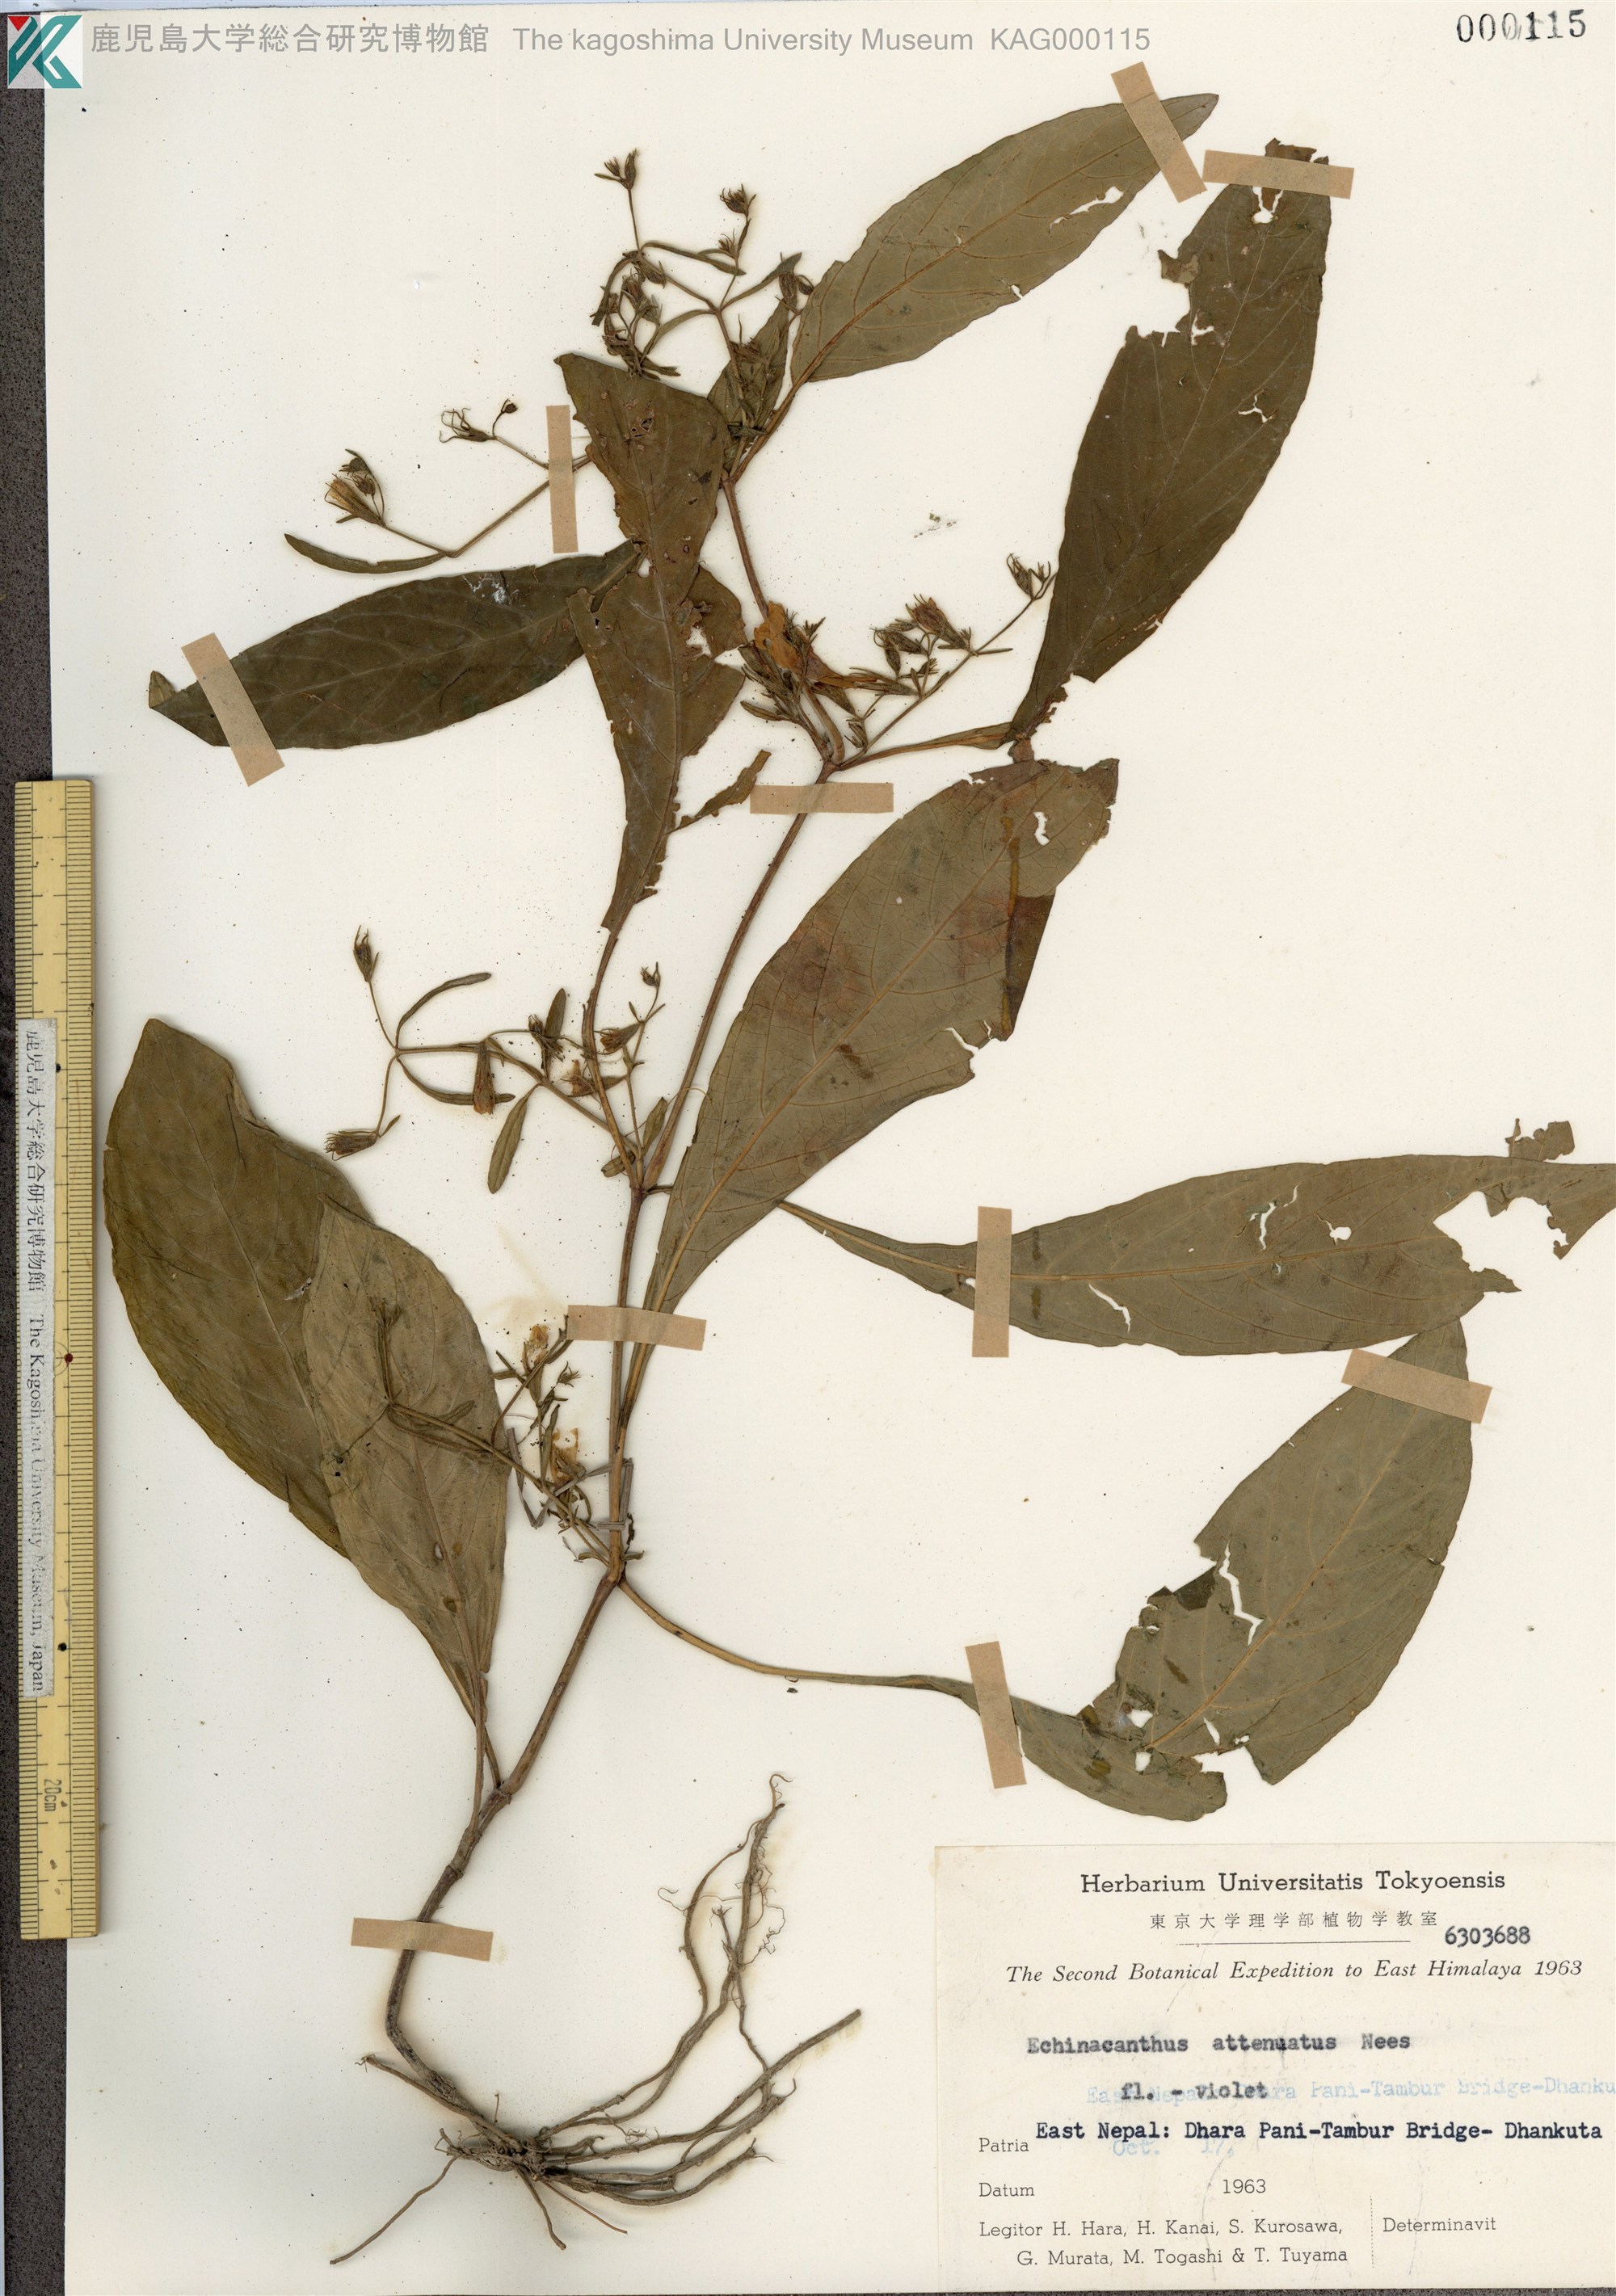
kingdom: Plantae
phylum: Tracheophyta
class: Magnoliopsida
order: Lamiales
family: Acanthaceae
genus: Echinacanthus
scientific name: Echinacanthus attenuatus
